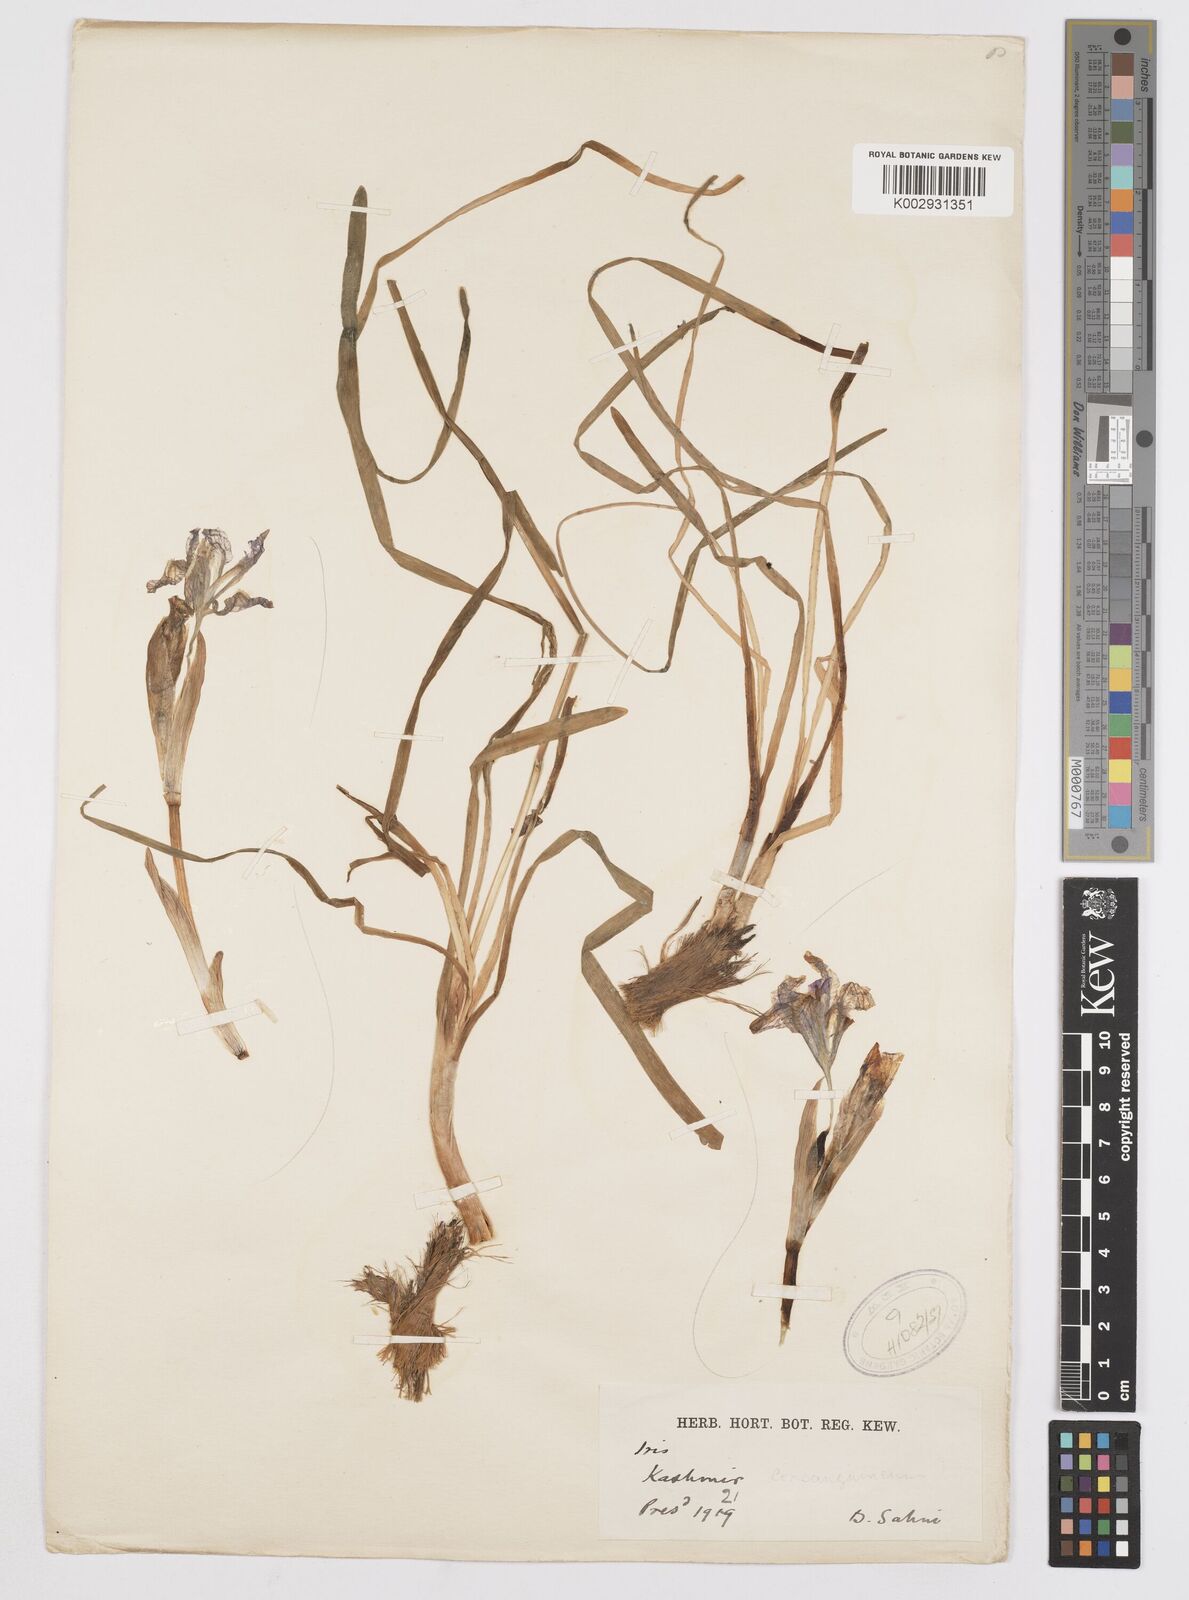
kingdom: Plantae
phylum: Tracheophyta
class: Liliopsida
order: Asparagales
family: Iridaceae
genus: Iris
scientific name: Iris
